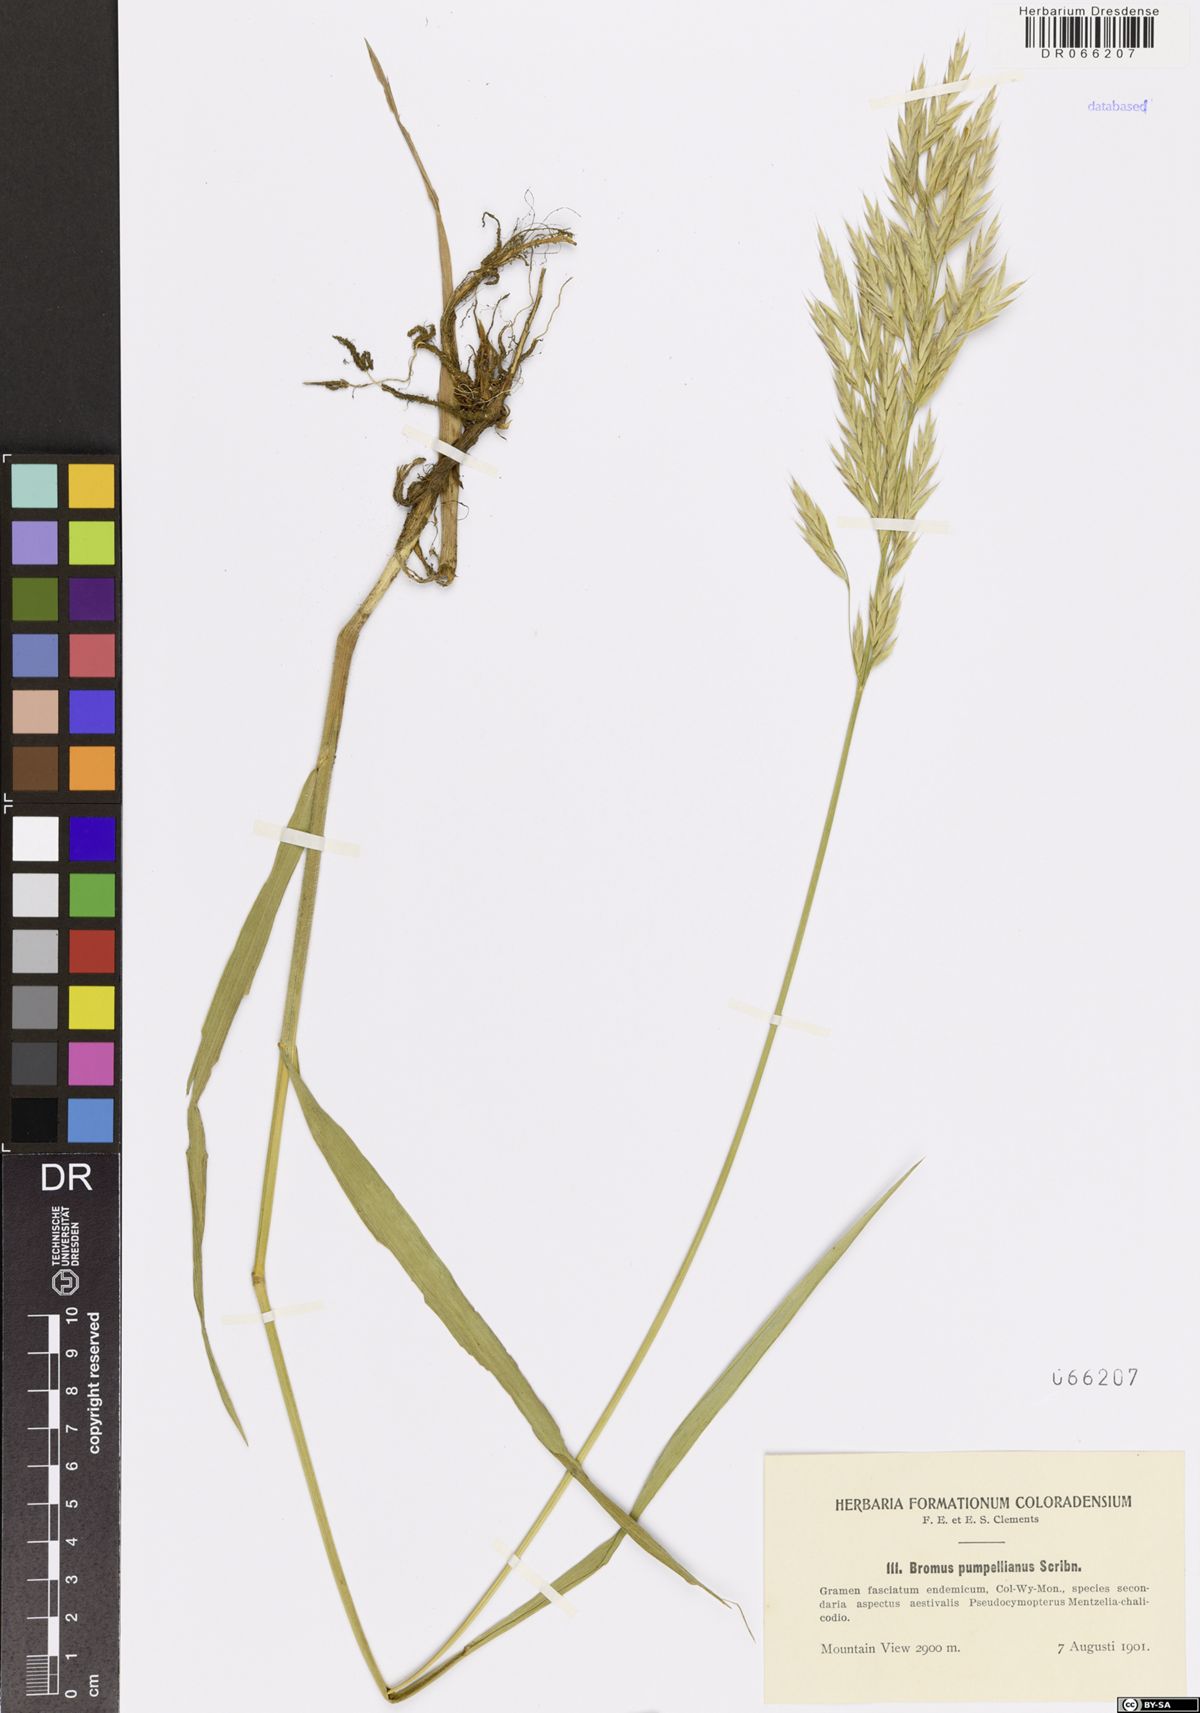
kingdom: Plantae
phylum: Tracheophyta
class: Liliopsida
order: Poales
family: Poaceae
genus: Bromus
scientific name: Bromus pumpellianus
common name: Pumpelly's brome
